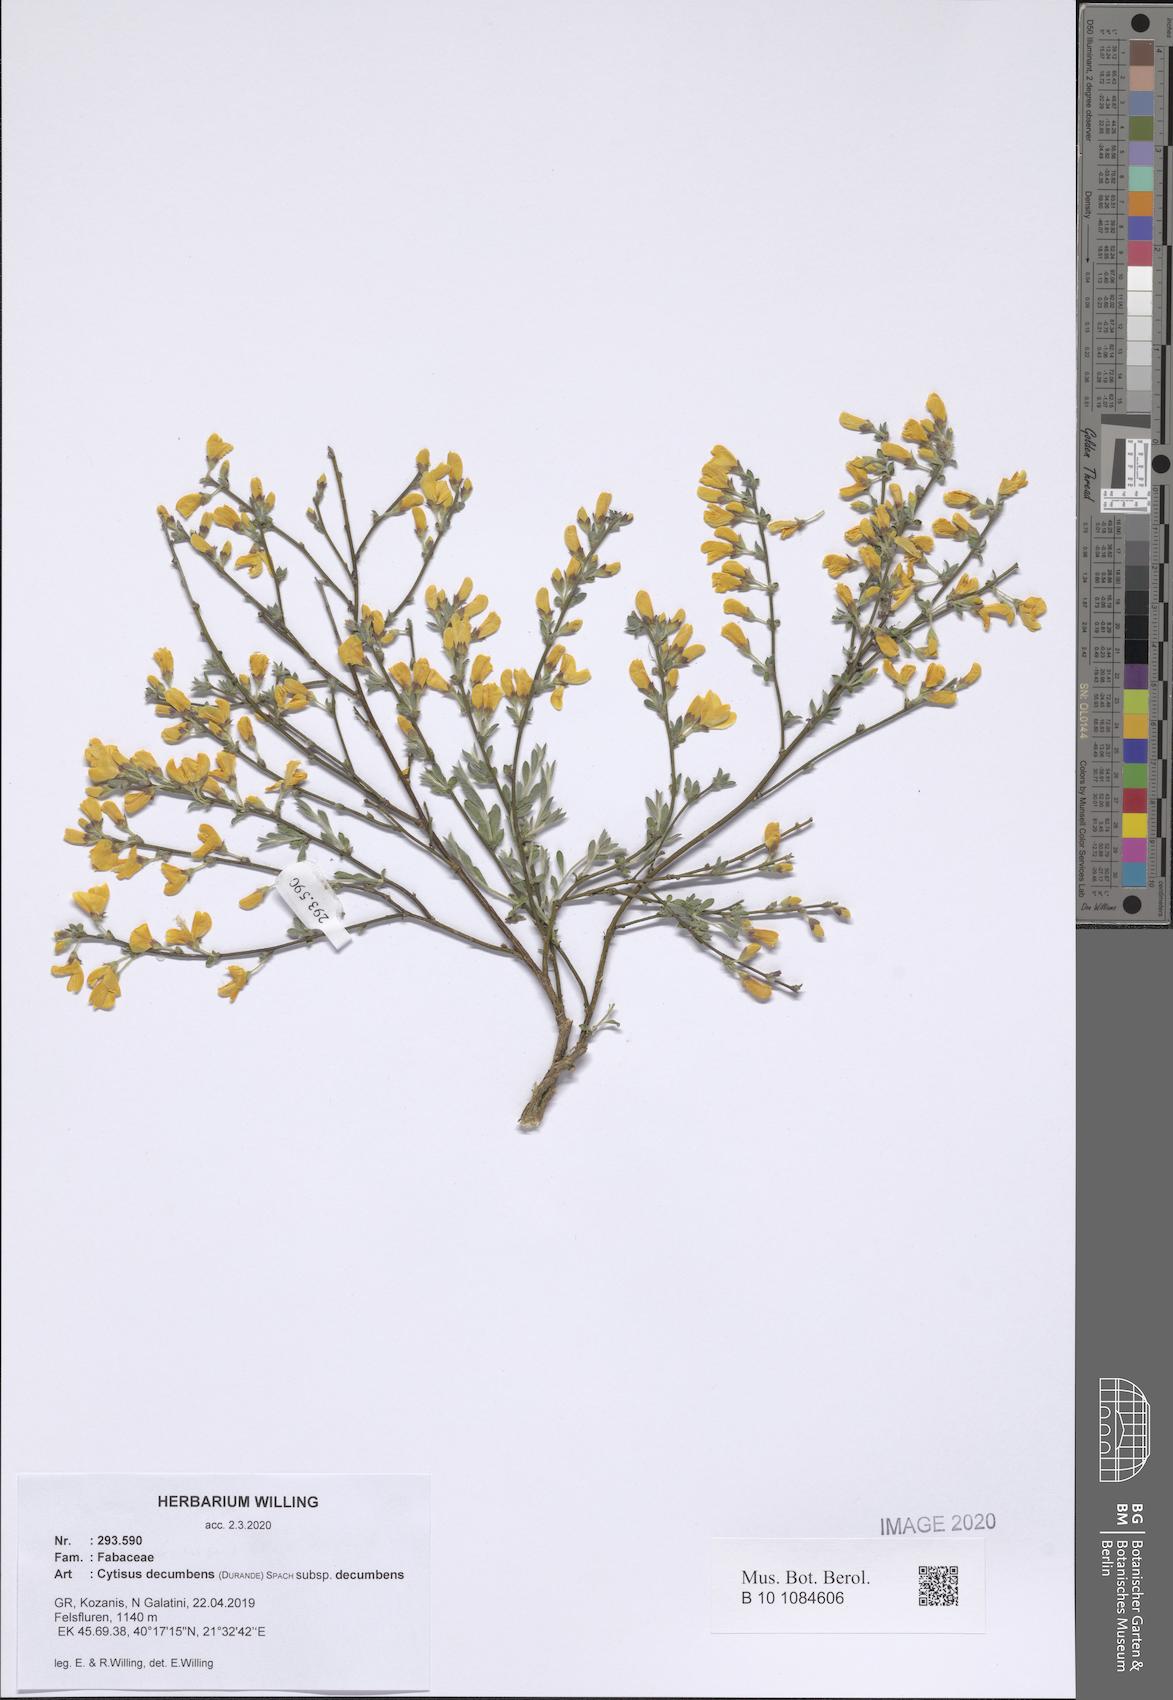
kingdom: Plantae
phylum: Tracheophyta
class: Magnoliopsida
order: Fabales
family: Fabaceae
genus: Cytisus
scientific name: Cytisus decumbens
